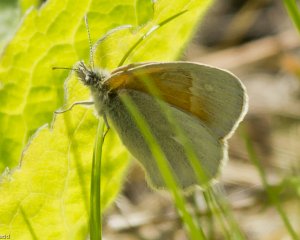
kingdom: Animalia
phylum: Arthropoda
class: Insecta
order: Lepidoptera
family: Nymphalidae
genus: Coenonympha
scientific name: Coenonympha tullia
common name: Large Heath
